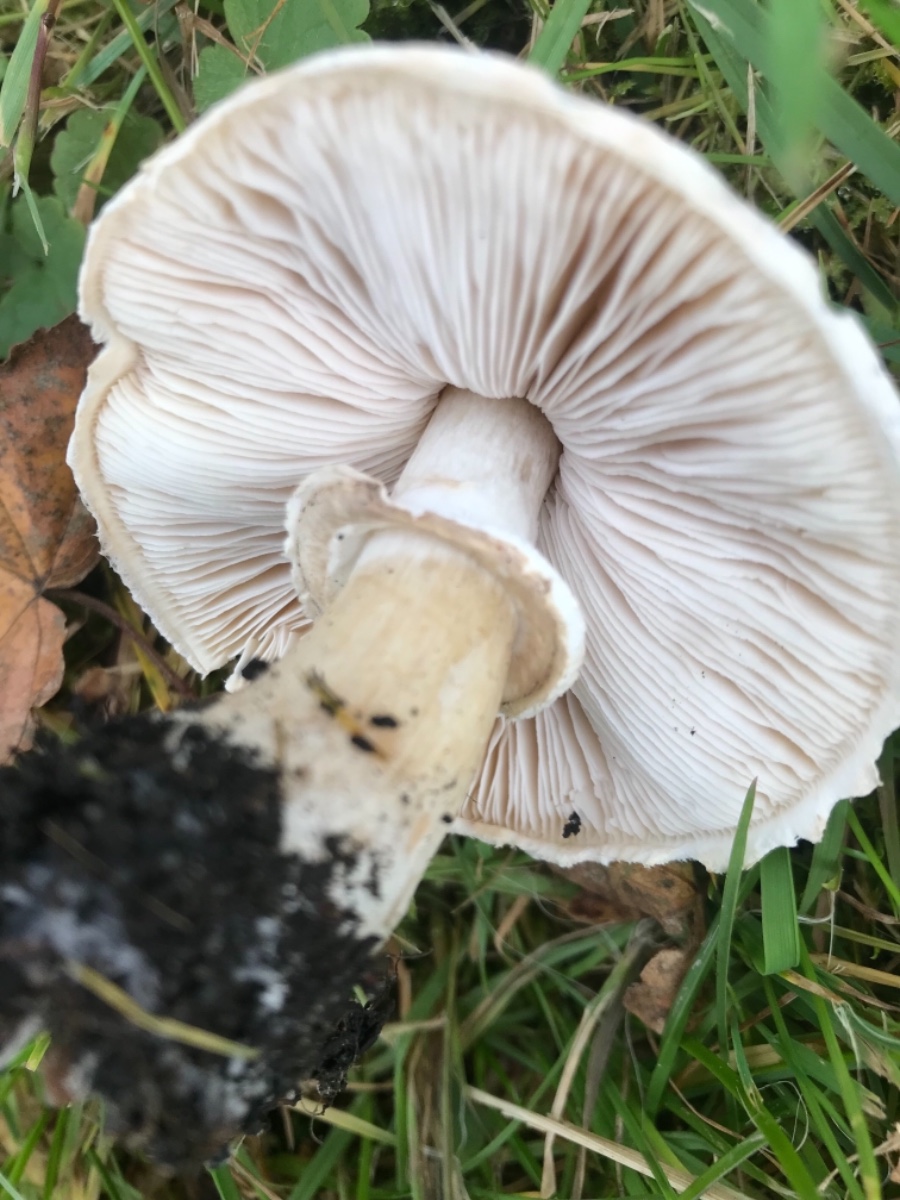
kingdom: Fungi
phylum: Basidiomycota
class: Agaricomycetes
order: Agaricales
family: Agaricaceae
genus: Leucoagaricus
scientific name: Leucoagaricus leucothites
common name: rosabladet silkehat
